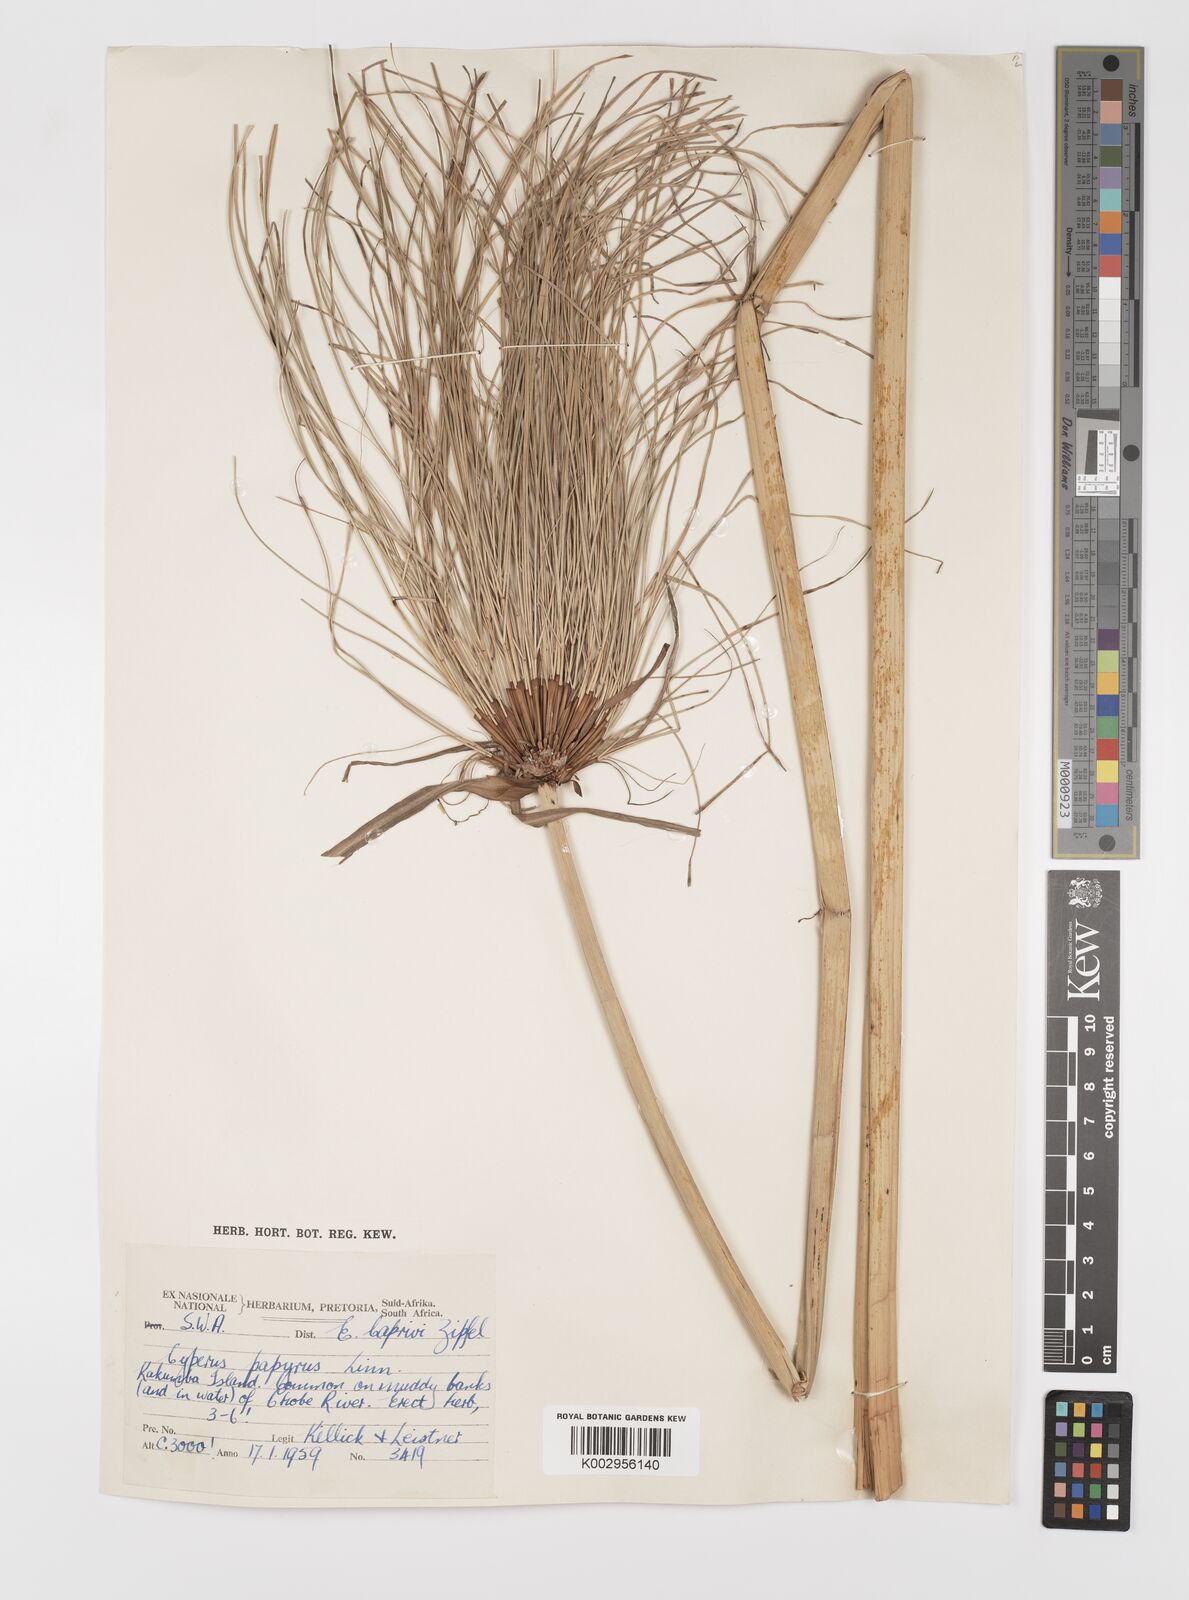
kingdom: Plantae
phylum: Tracheophyta
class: Liliopsida
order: Poales
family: Cyperaceae
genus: Cyperus
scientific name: Cyperus papyrus
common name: Papyrus
